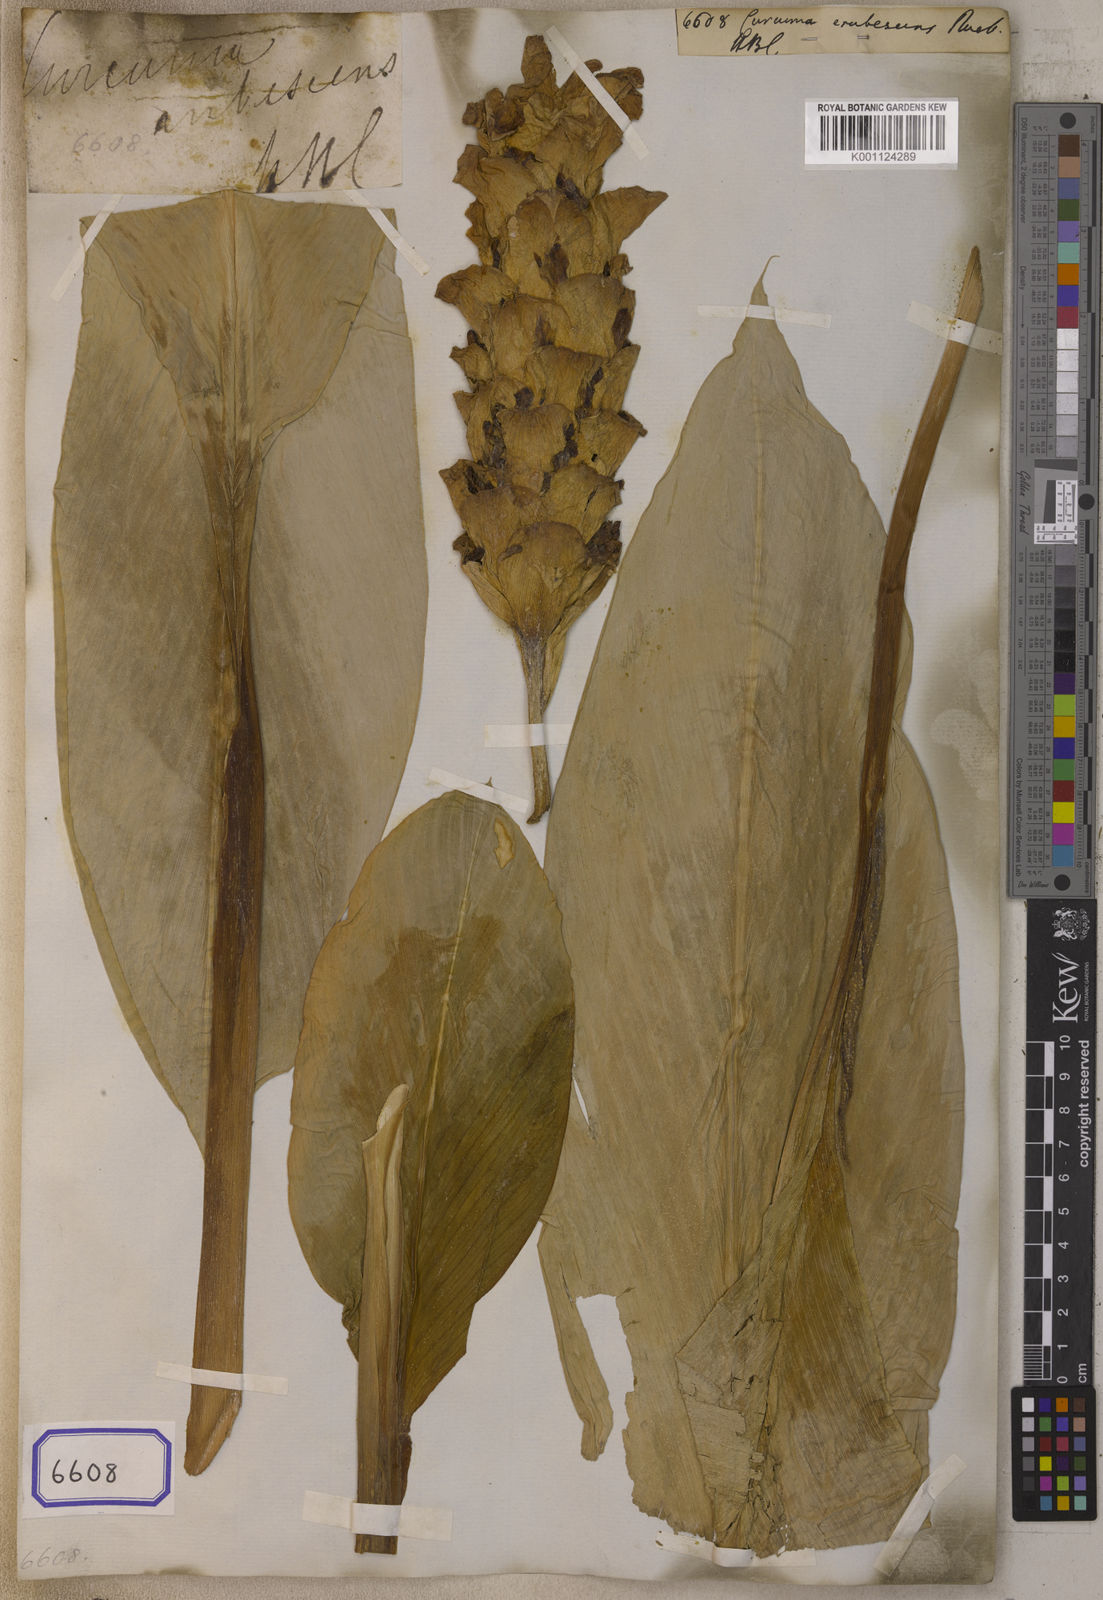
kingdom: Plantae
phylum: Tracheophyta
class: Liliopsida
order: Zingiberales
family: Zingiberaceae
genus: Curcuma
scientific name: Curcuma
